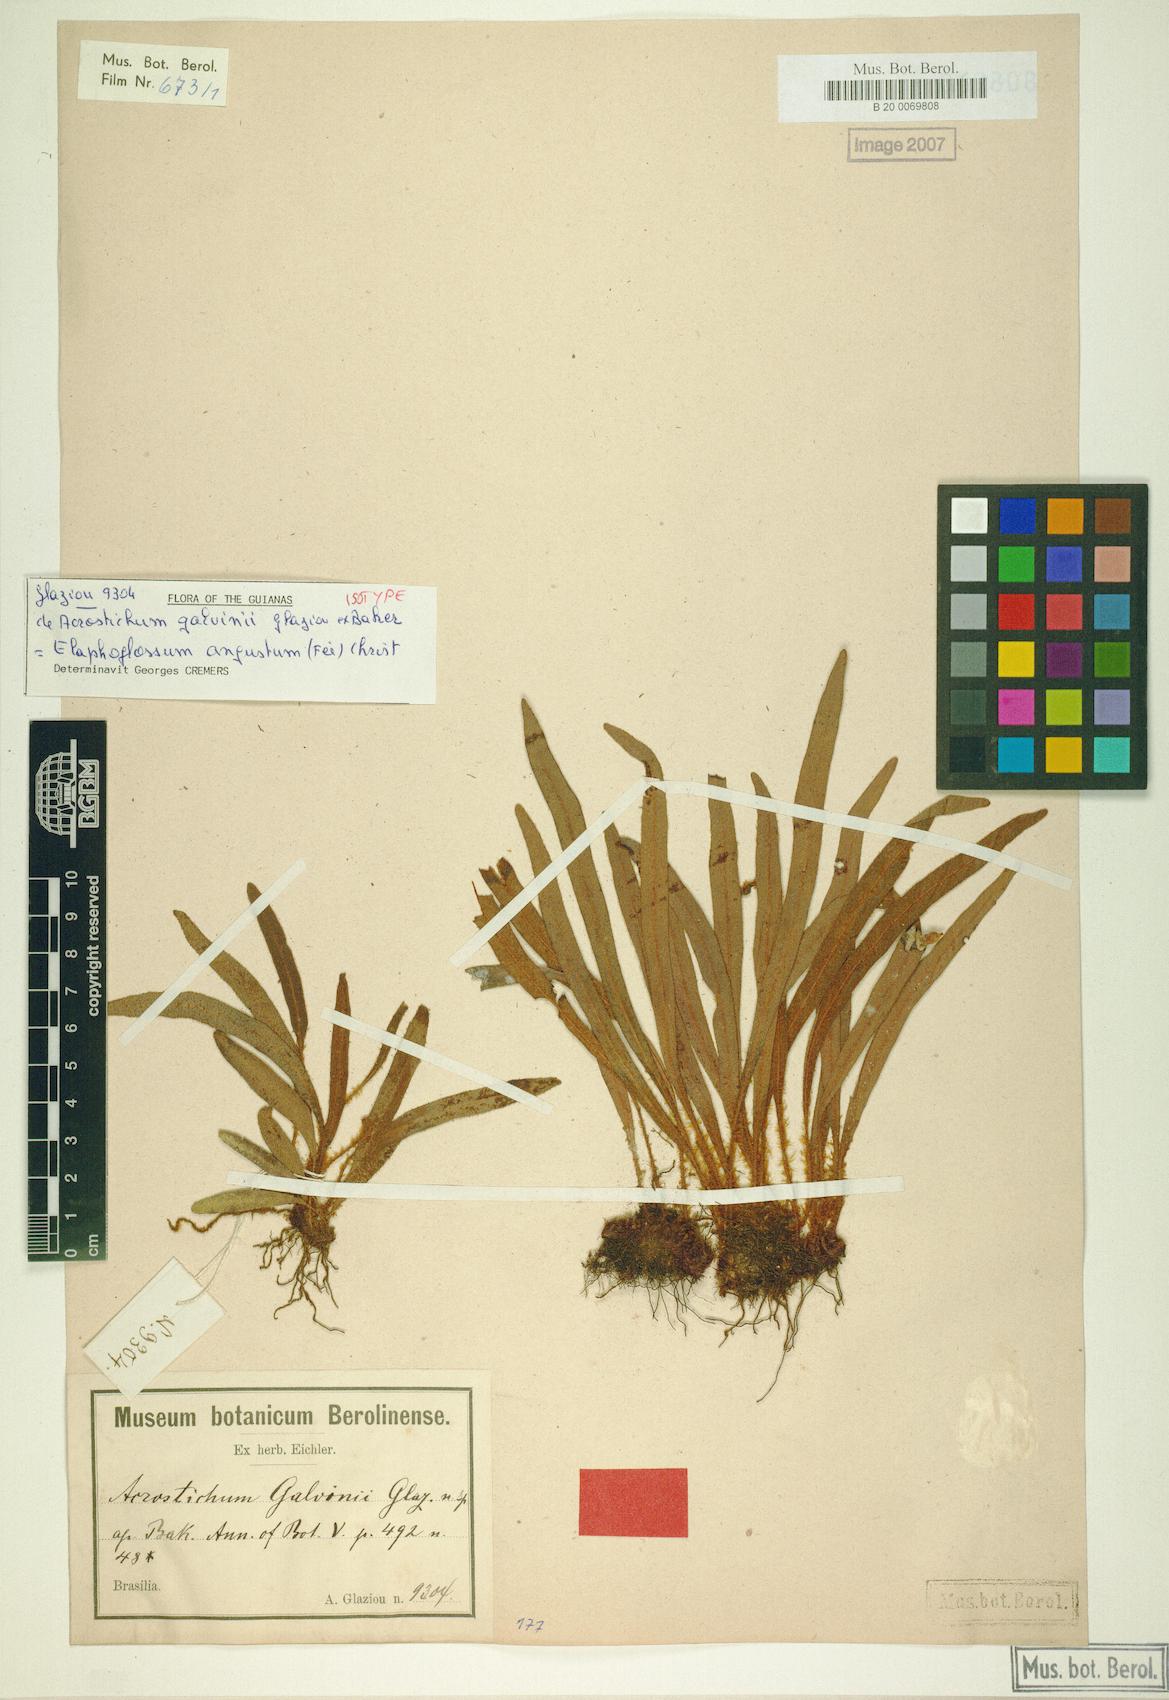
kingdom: Plantae
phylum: Tracheophyta
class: Polypodiopsida
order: Polypodiales
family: Dryopteridaceae
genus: Elaphoglossum
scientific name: Elaphoglossum angustum
